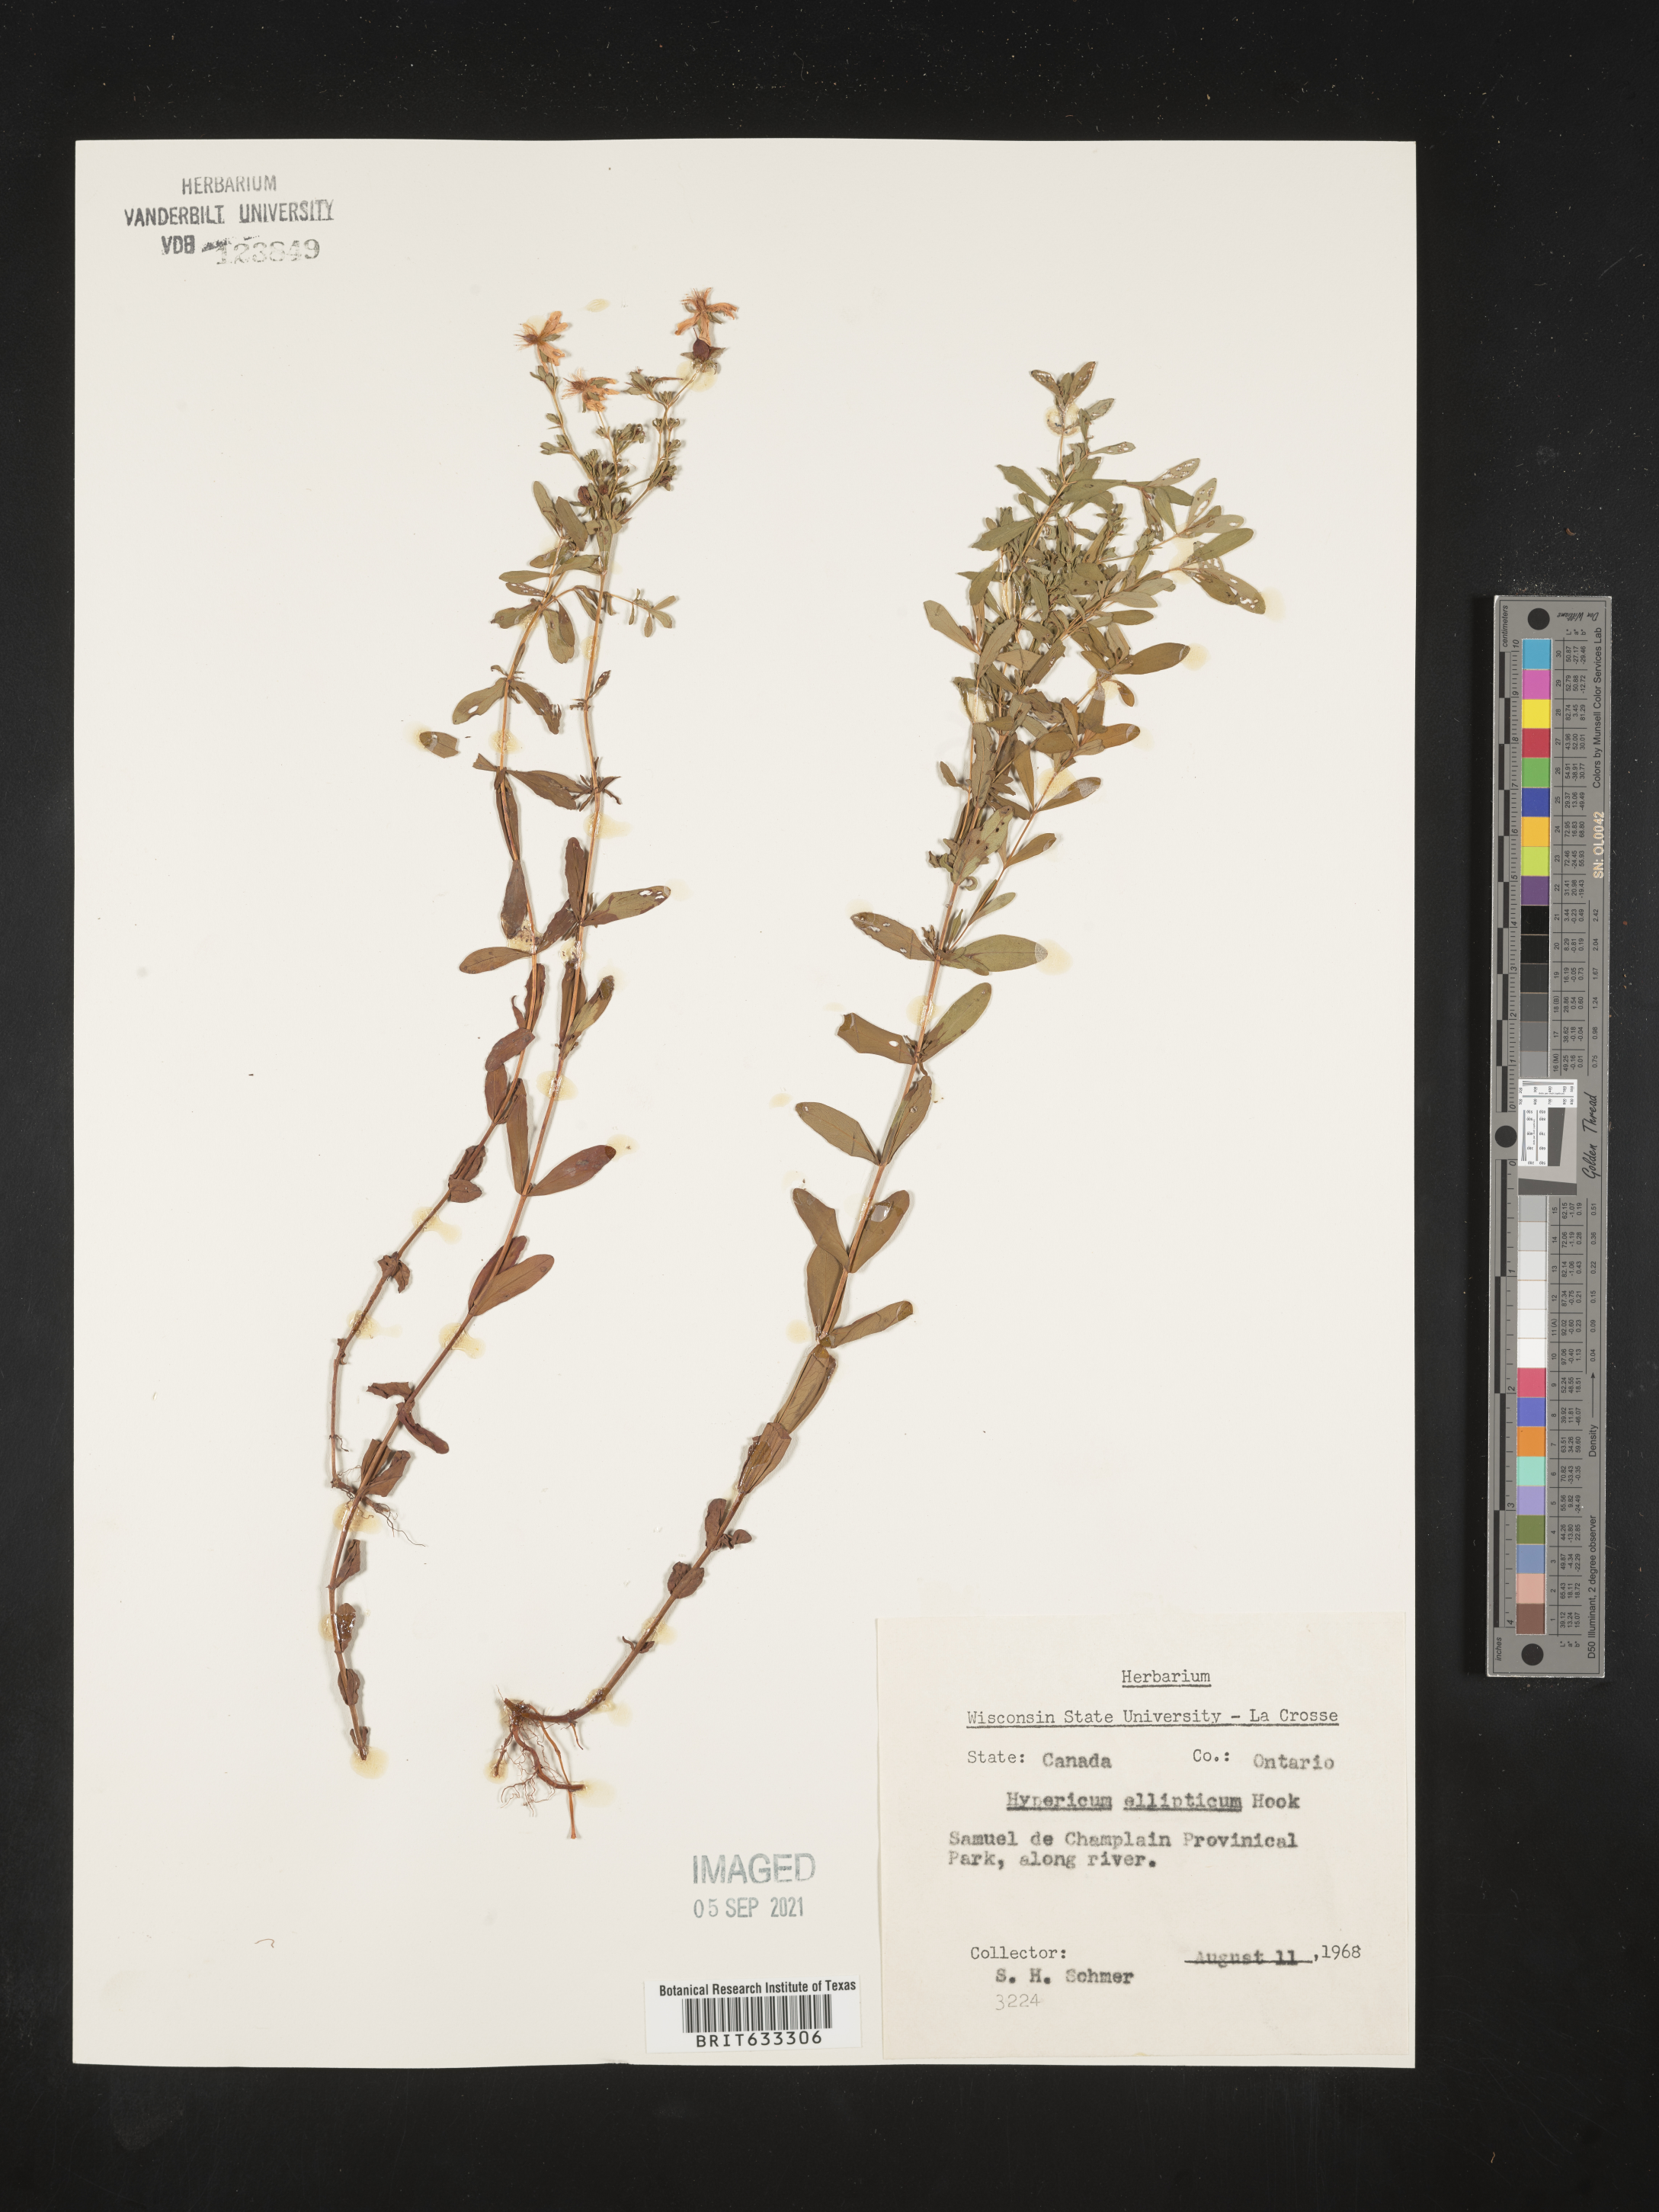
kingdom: Plantae
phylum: Tracheophyta
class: Magnoliopsida
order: Malpighiales
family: Hypericaceae
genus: Hypericum
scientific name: Hypericum
